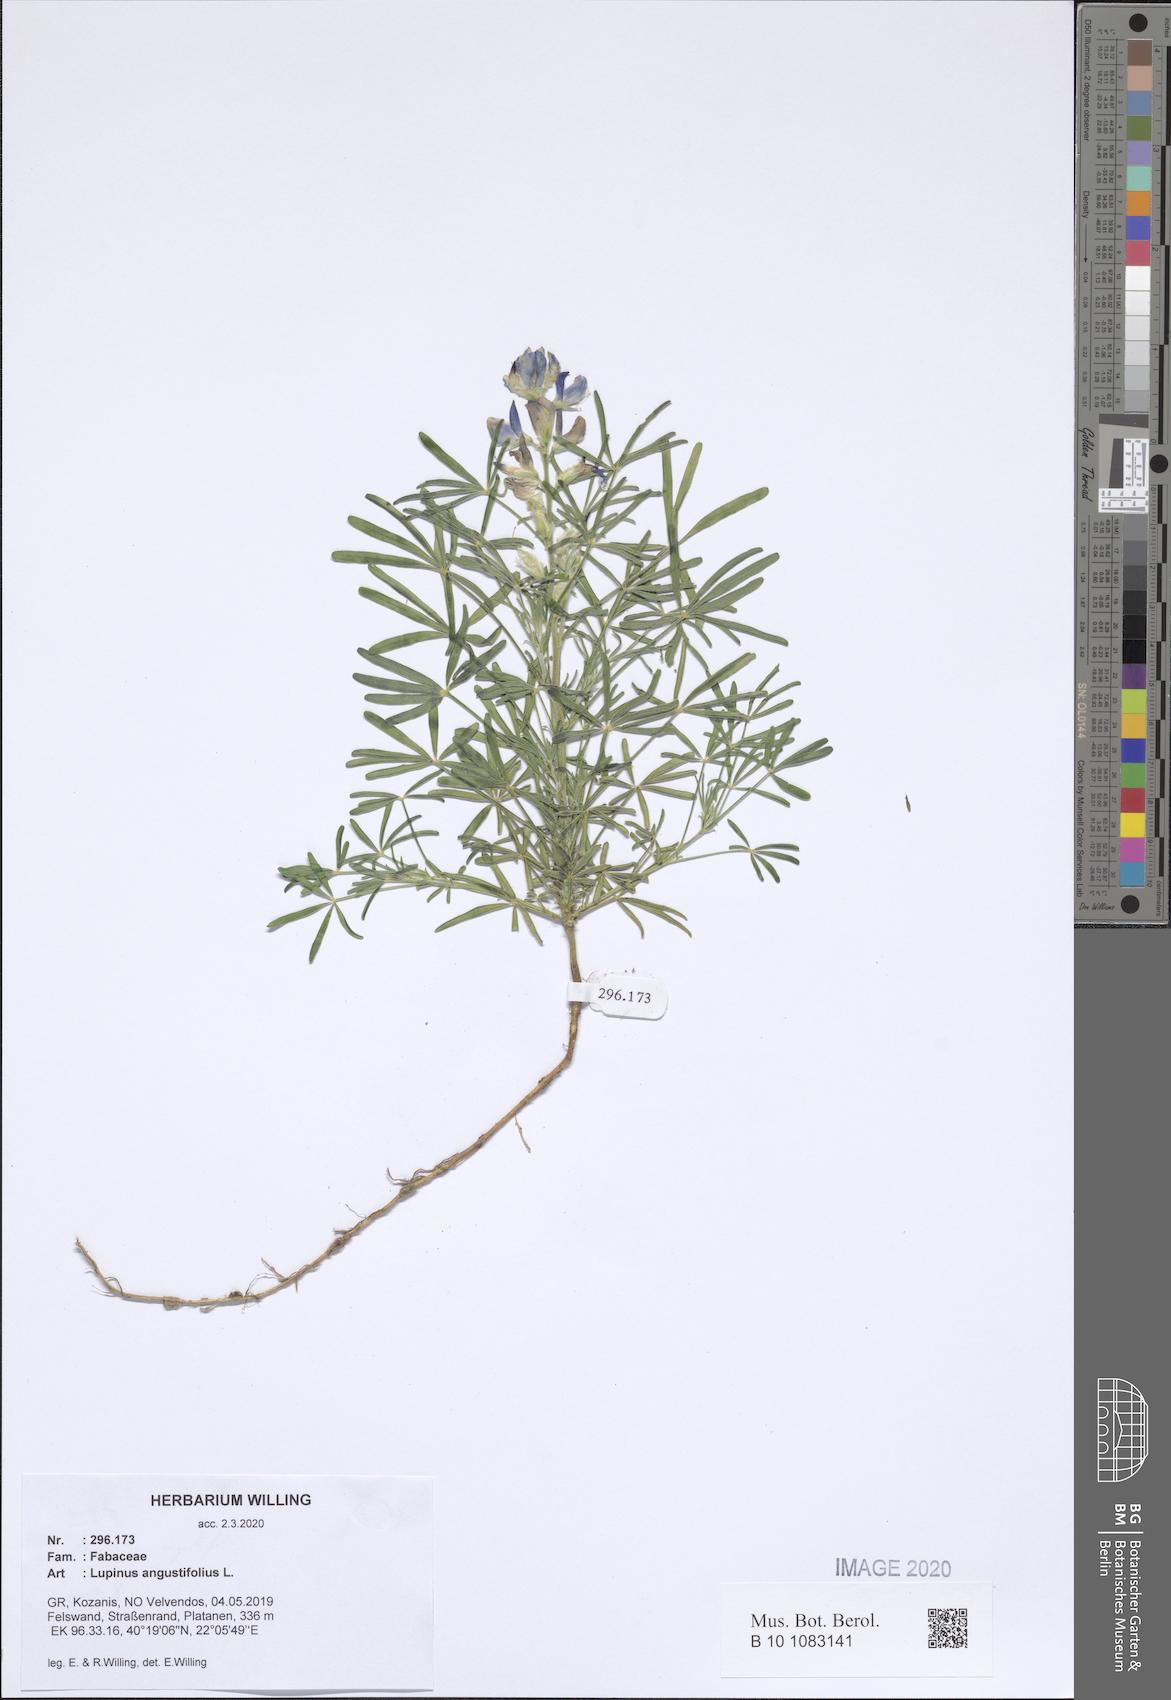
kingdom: Plantae
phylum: Tracheophyta
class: Magnoliopsida
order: Fabales
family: Fabaceae
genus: Lupinus
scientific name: Lupinus angustifolius
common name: Narrow-leaved lupin
